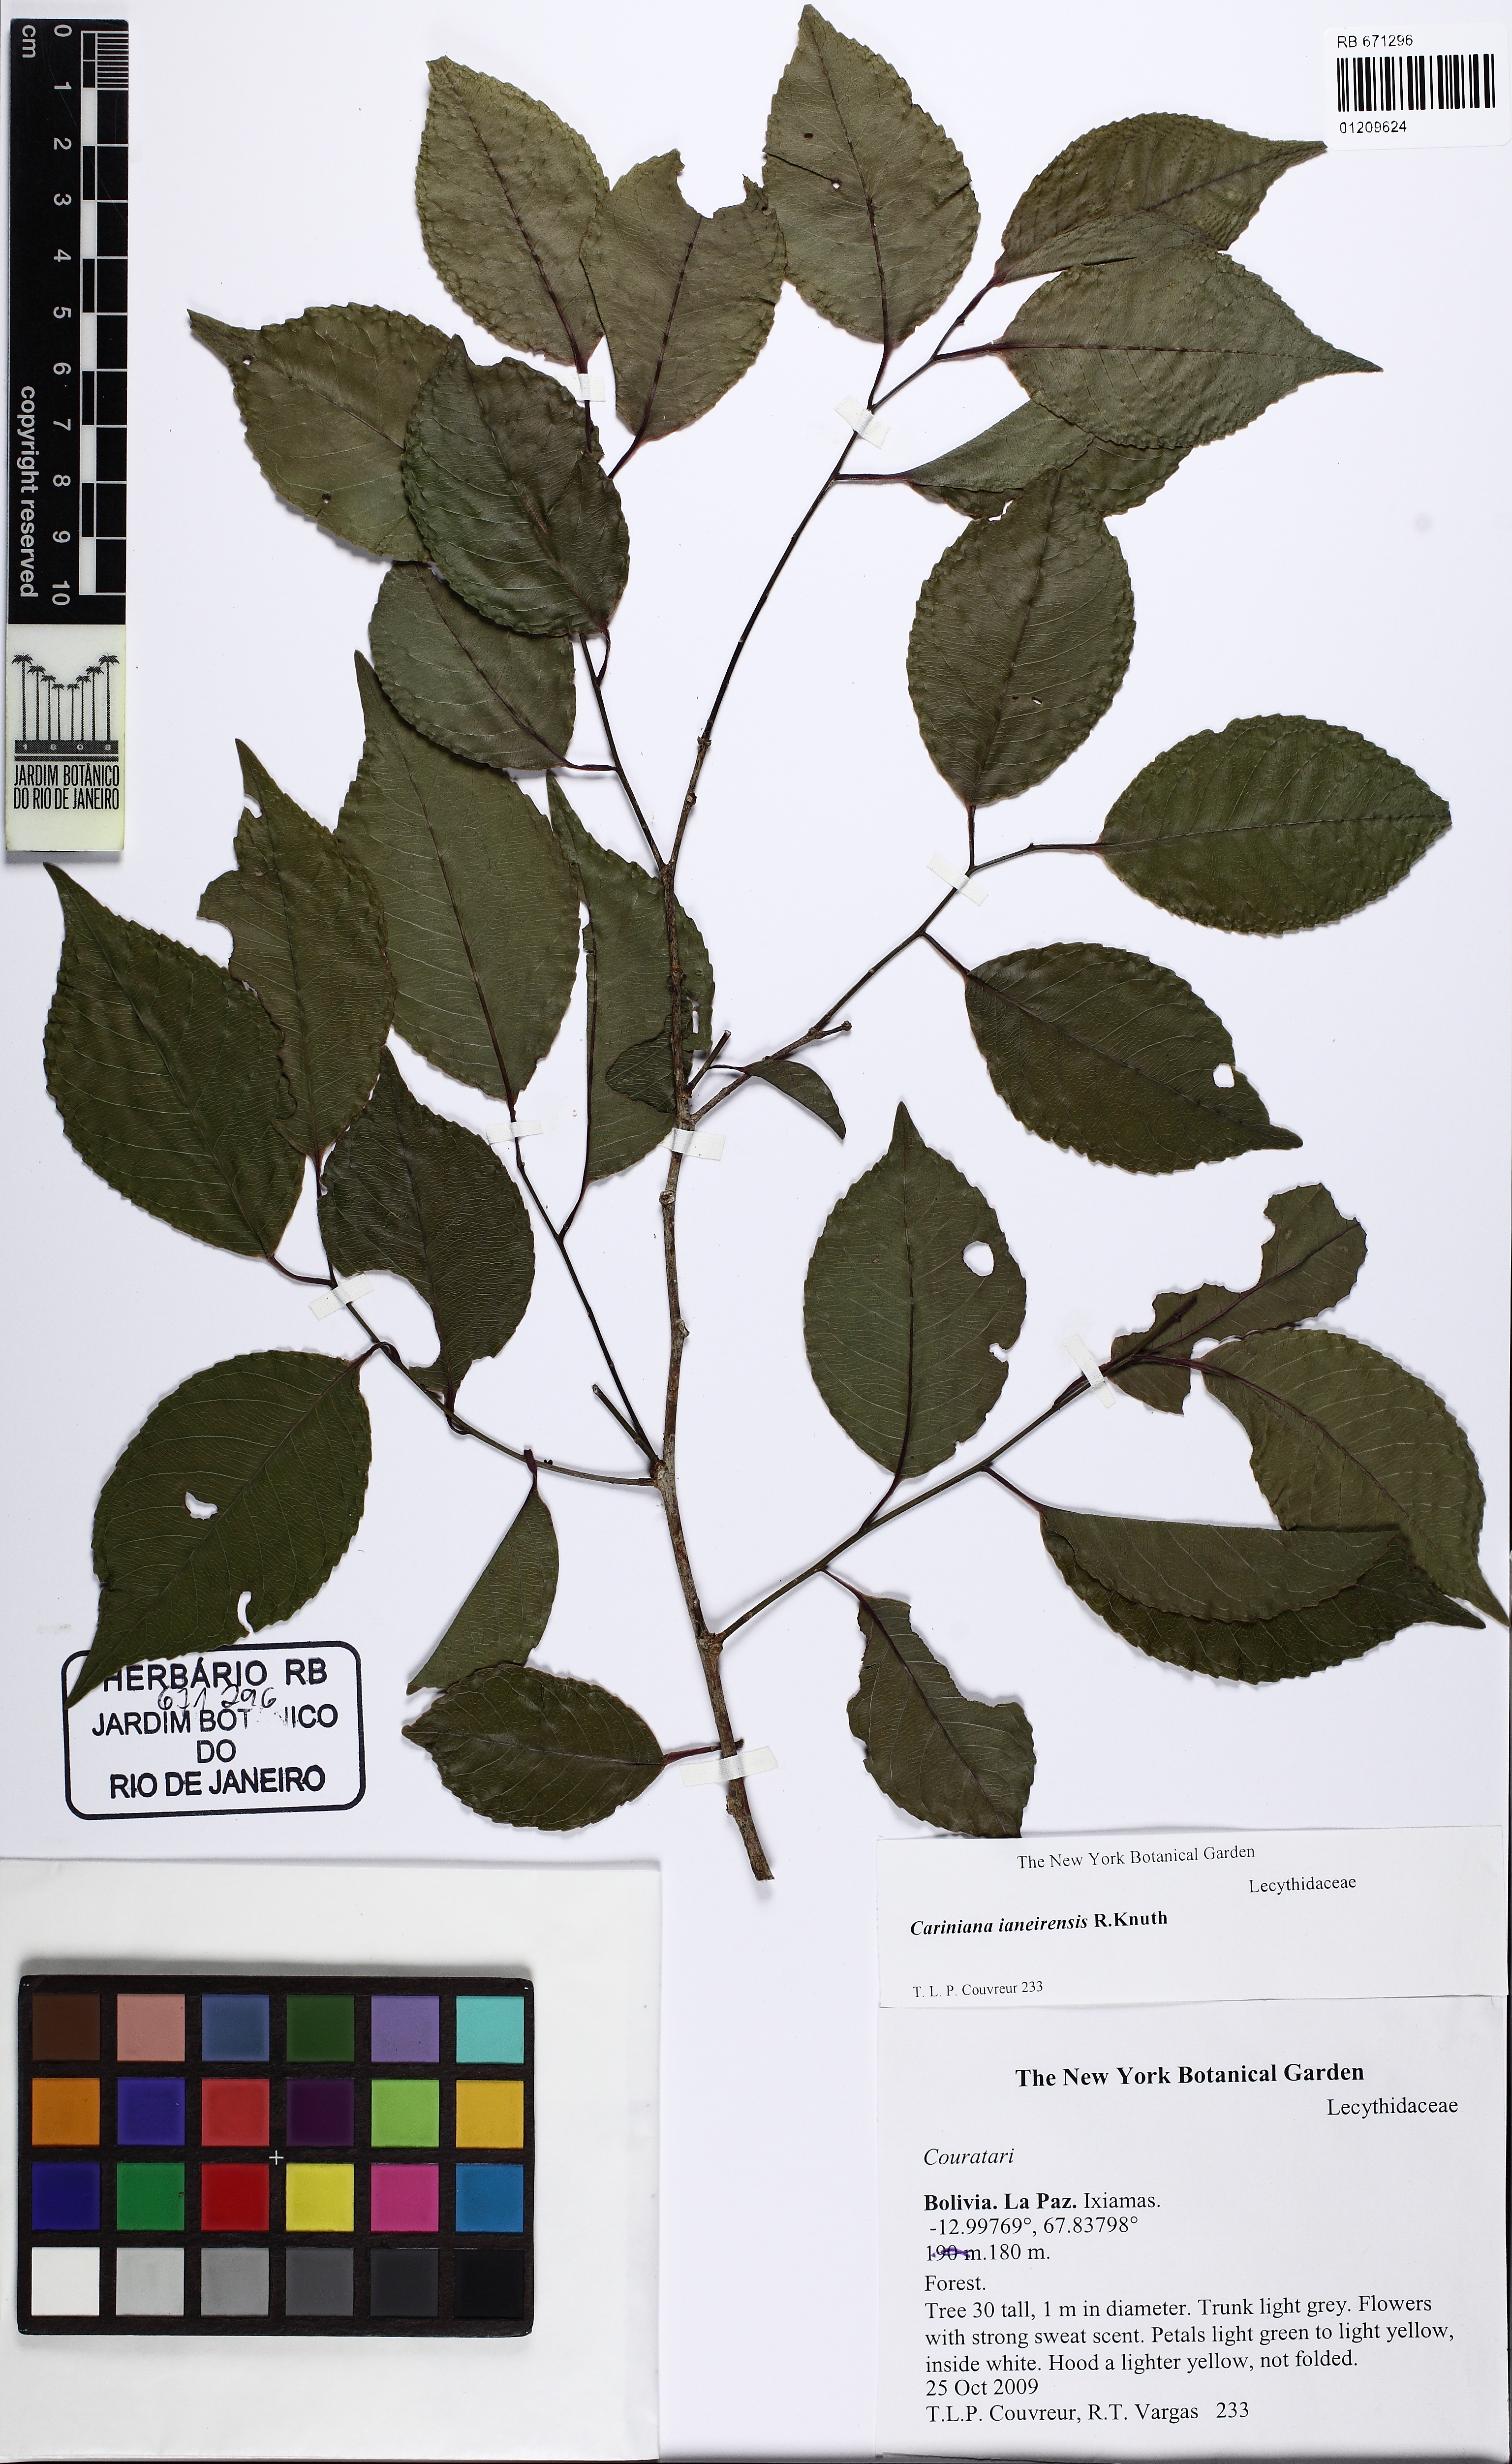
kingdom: Plantae
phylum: Tracheophyta
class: Magnoliopsida
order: Ericales
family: Lecythidaceae
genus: Cariniana
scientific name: Cariniana ianeirensis
